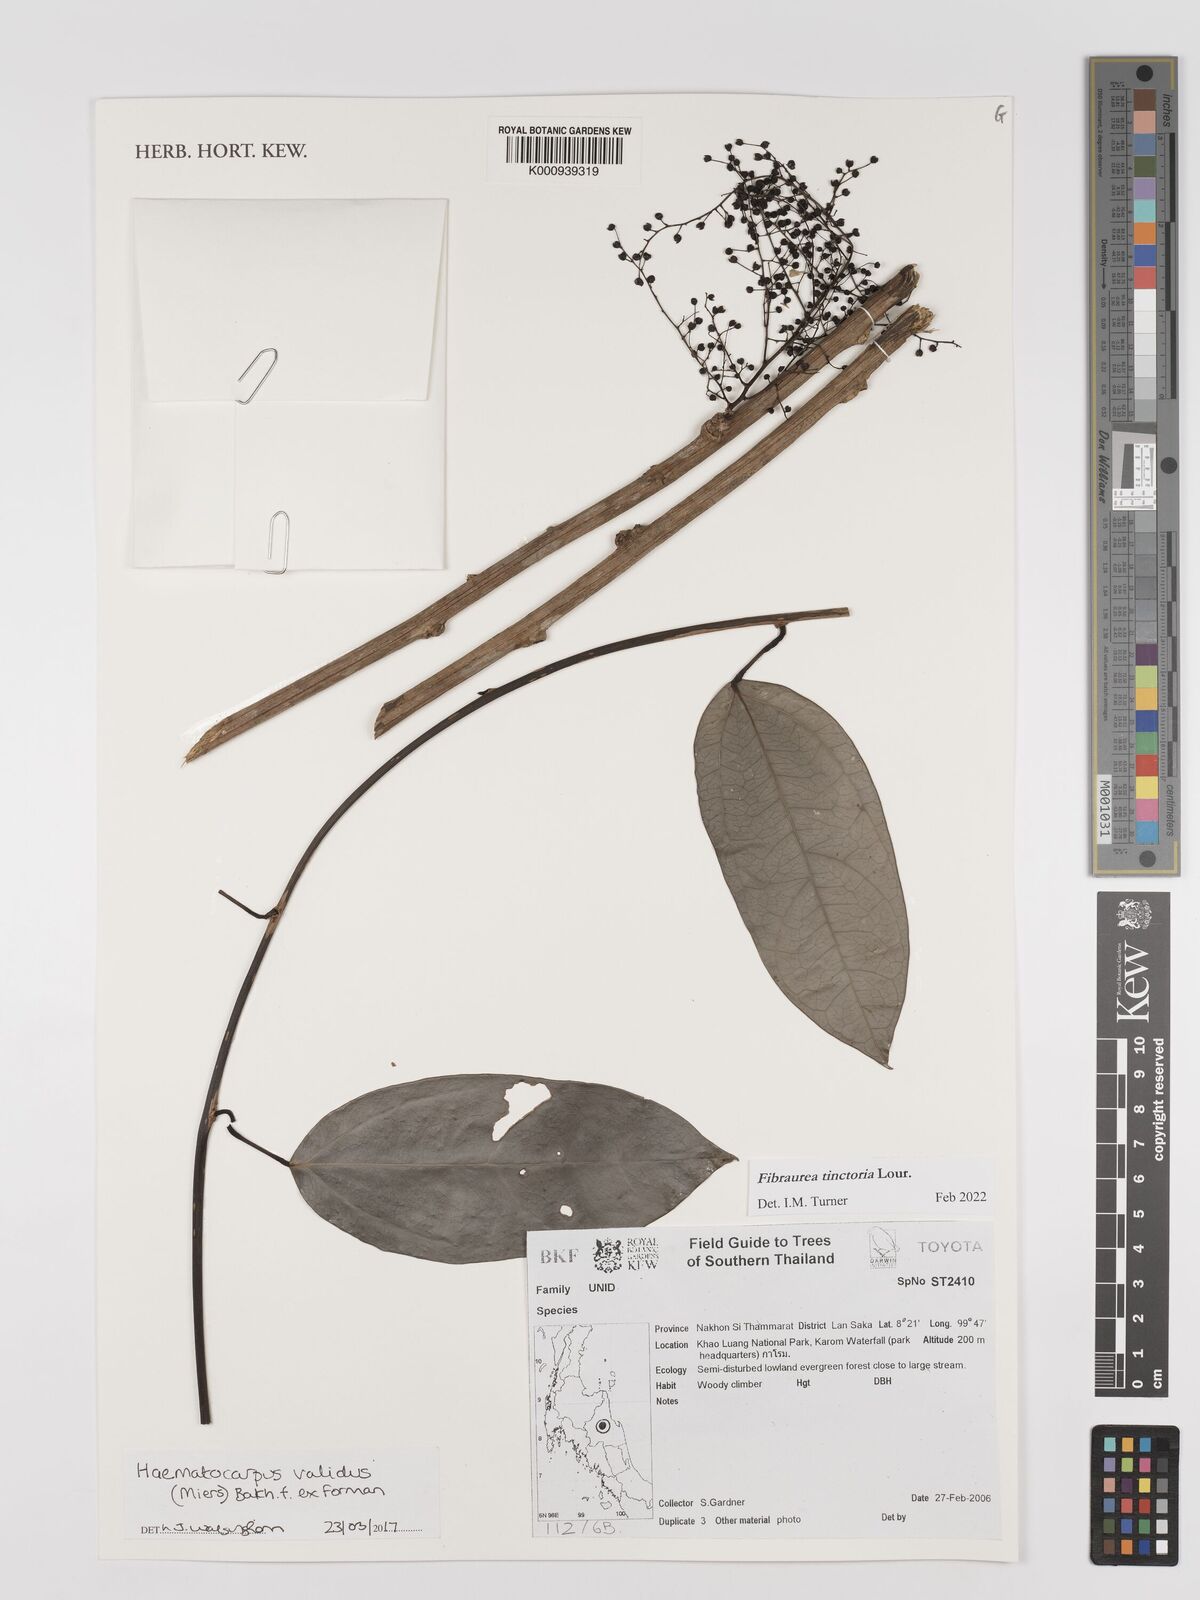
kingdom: Plantae
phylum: Tracheophyta
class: Magnoliopsida
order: Ranunculales
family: Menispermaceae
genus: Haematocarpus
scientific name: Haematocarpus validus
